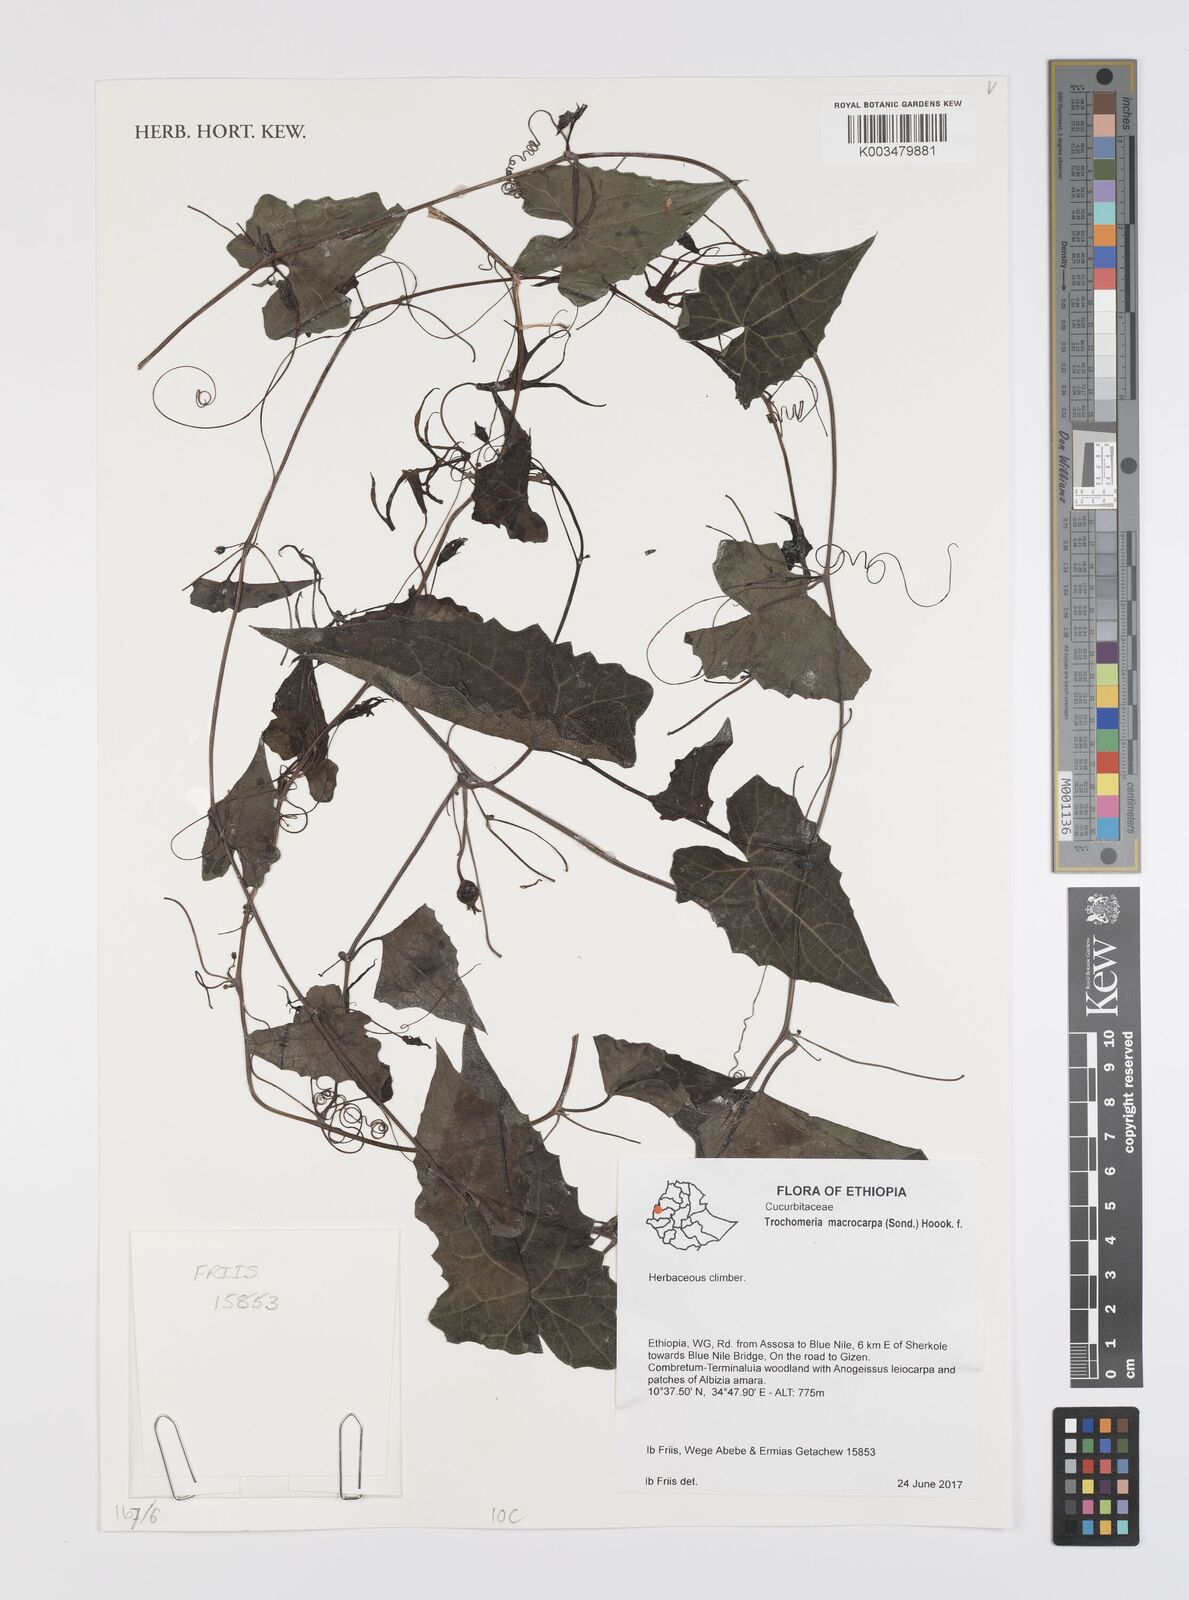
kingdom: Plantae
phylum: Tracheophyta
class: Magnoliopsida
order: Cucurbitales
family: Cucurbitaceae
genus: Trochomeria
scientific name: Trochomeria macrocarpa
